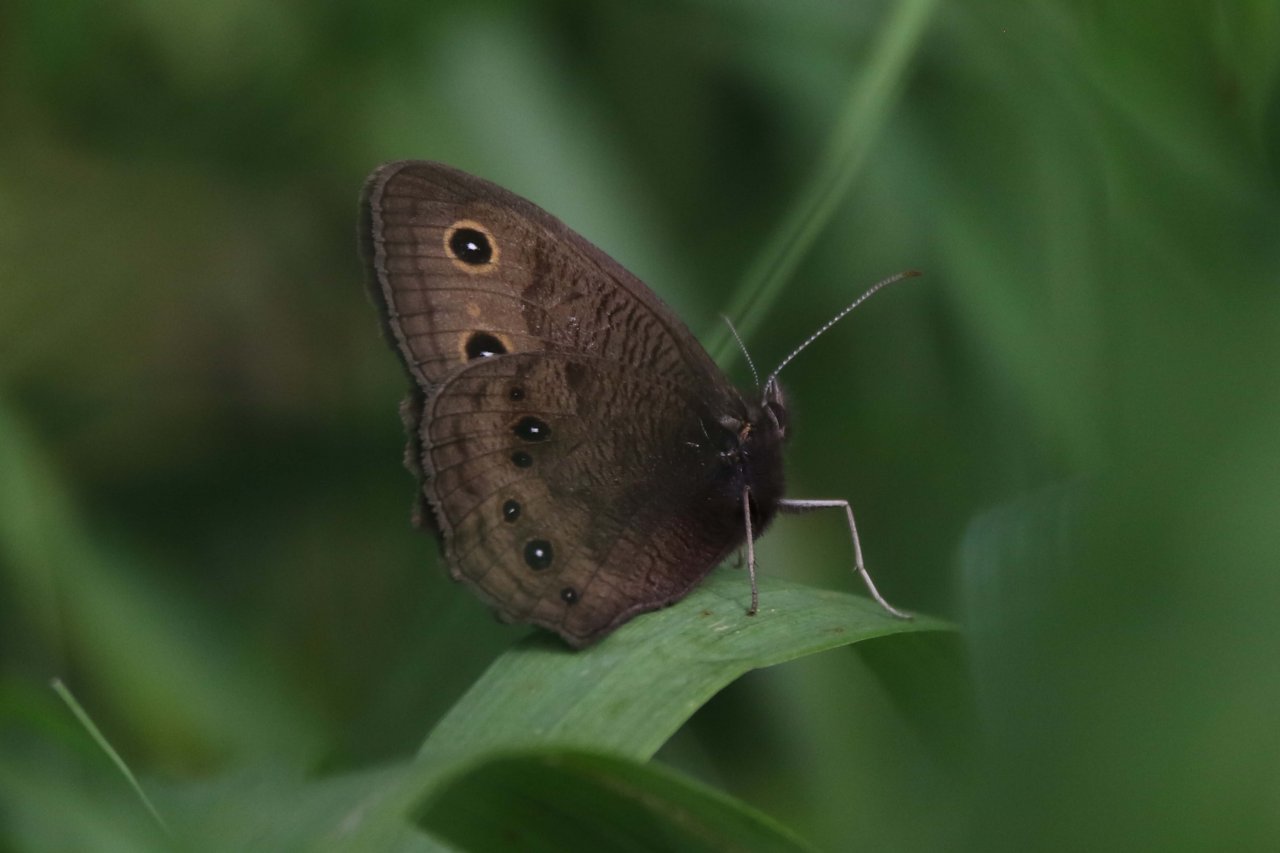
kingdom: Animalia
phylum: Arthropoda
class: Insecta
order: Lepidoptera
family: Nymphalidae
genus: Cercyonis
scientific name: Cercyonis pegala
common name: Common Wood-Nymph
